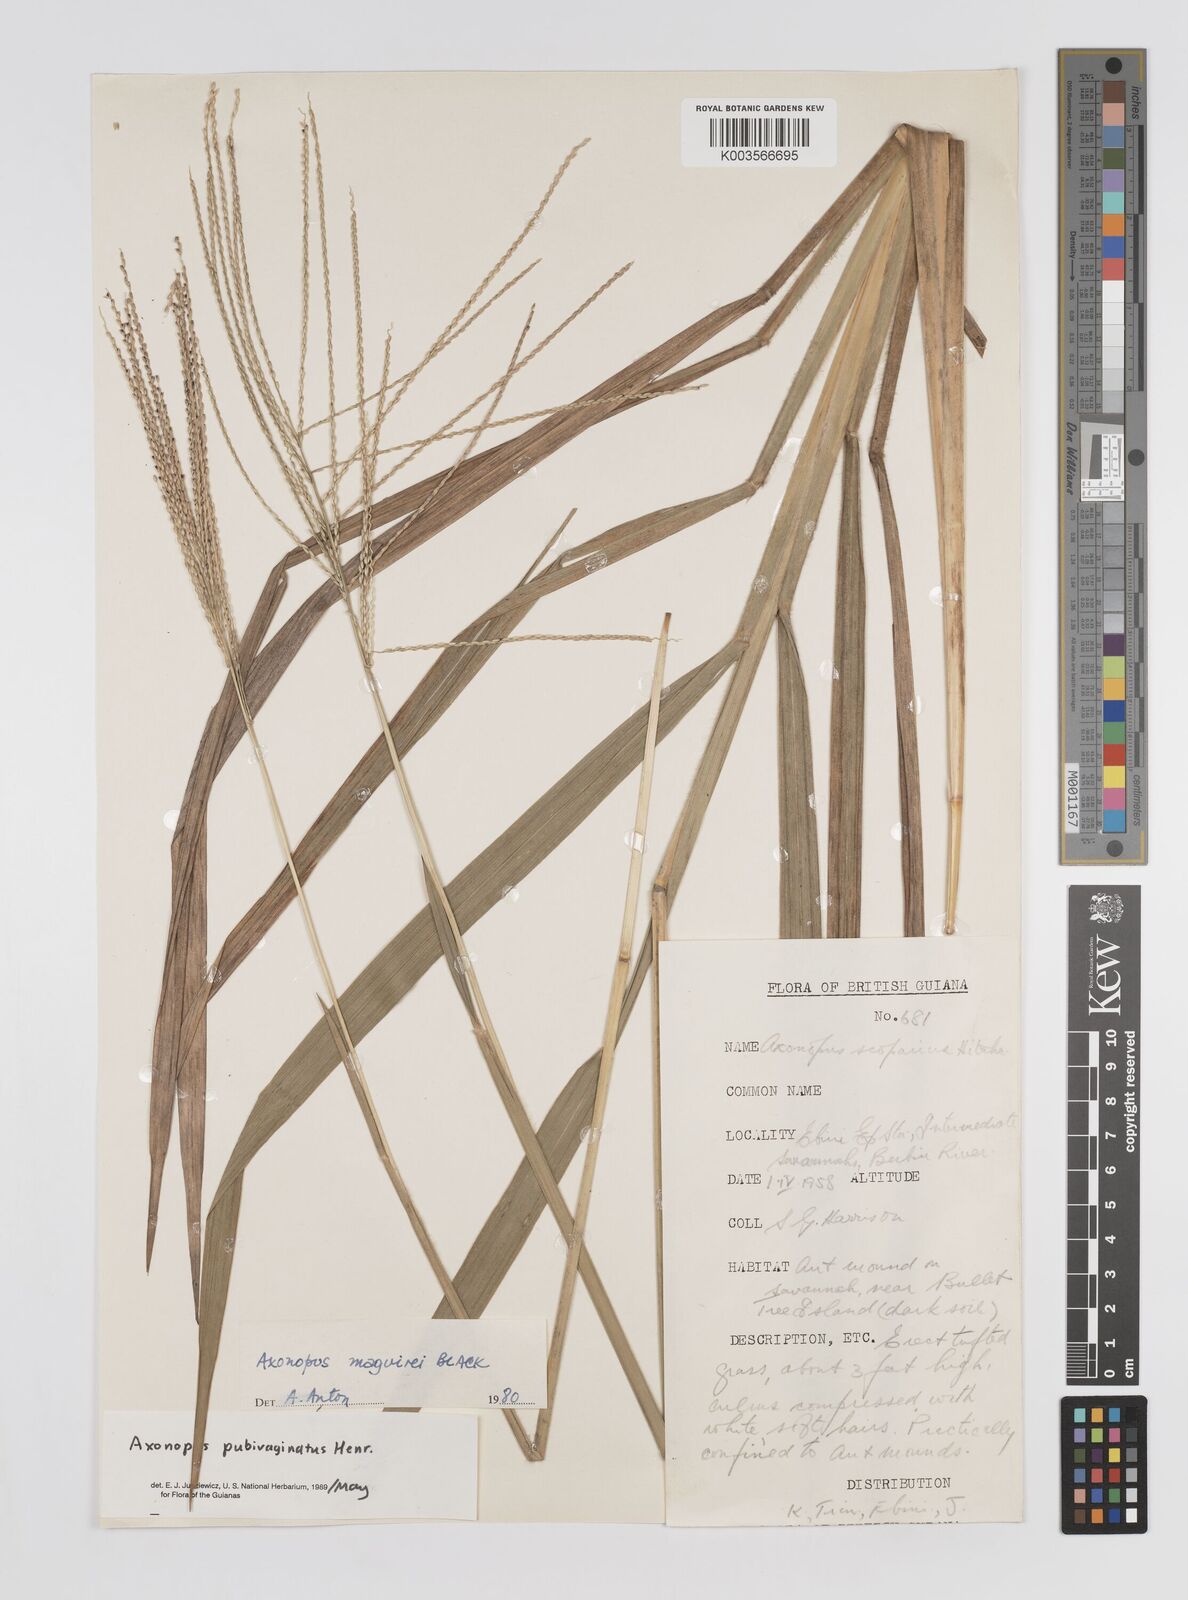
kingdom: Plantae
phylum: Tracheophyta
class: Liliopsida
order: Poales
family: Poaceae
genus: Axonopus
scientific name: Axonopus pubivaginatus
